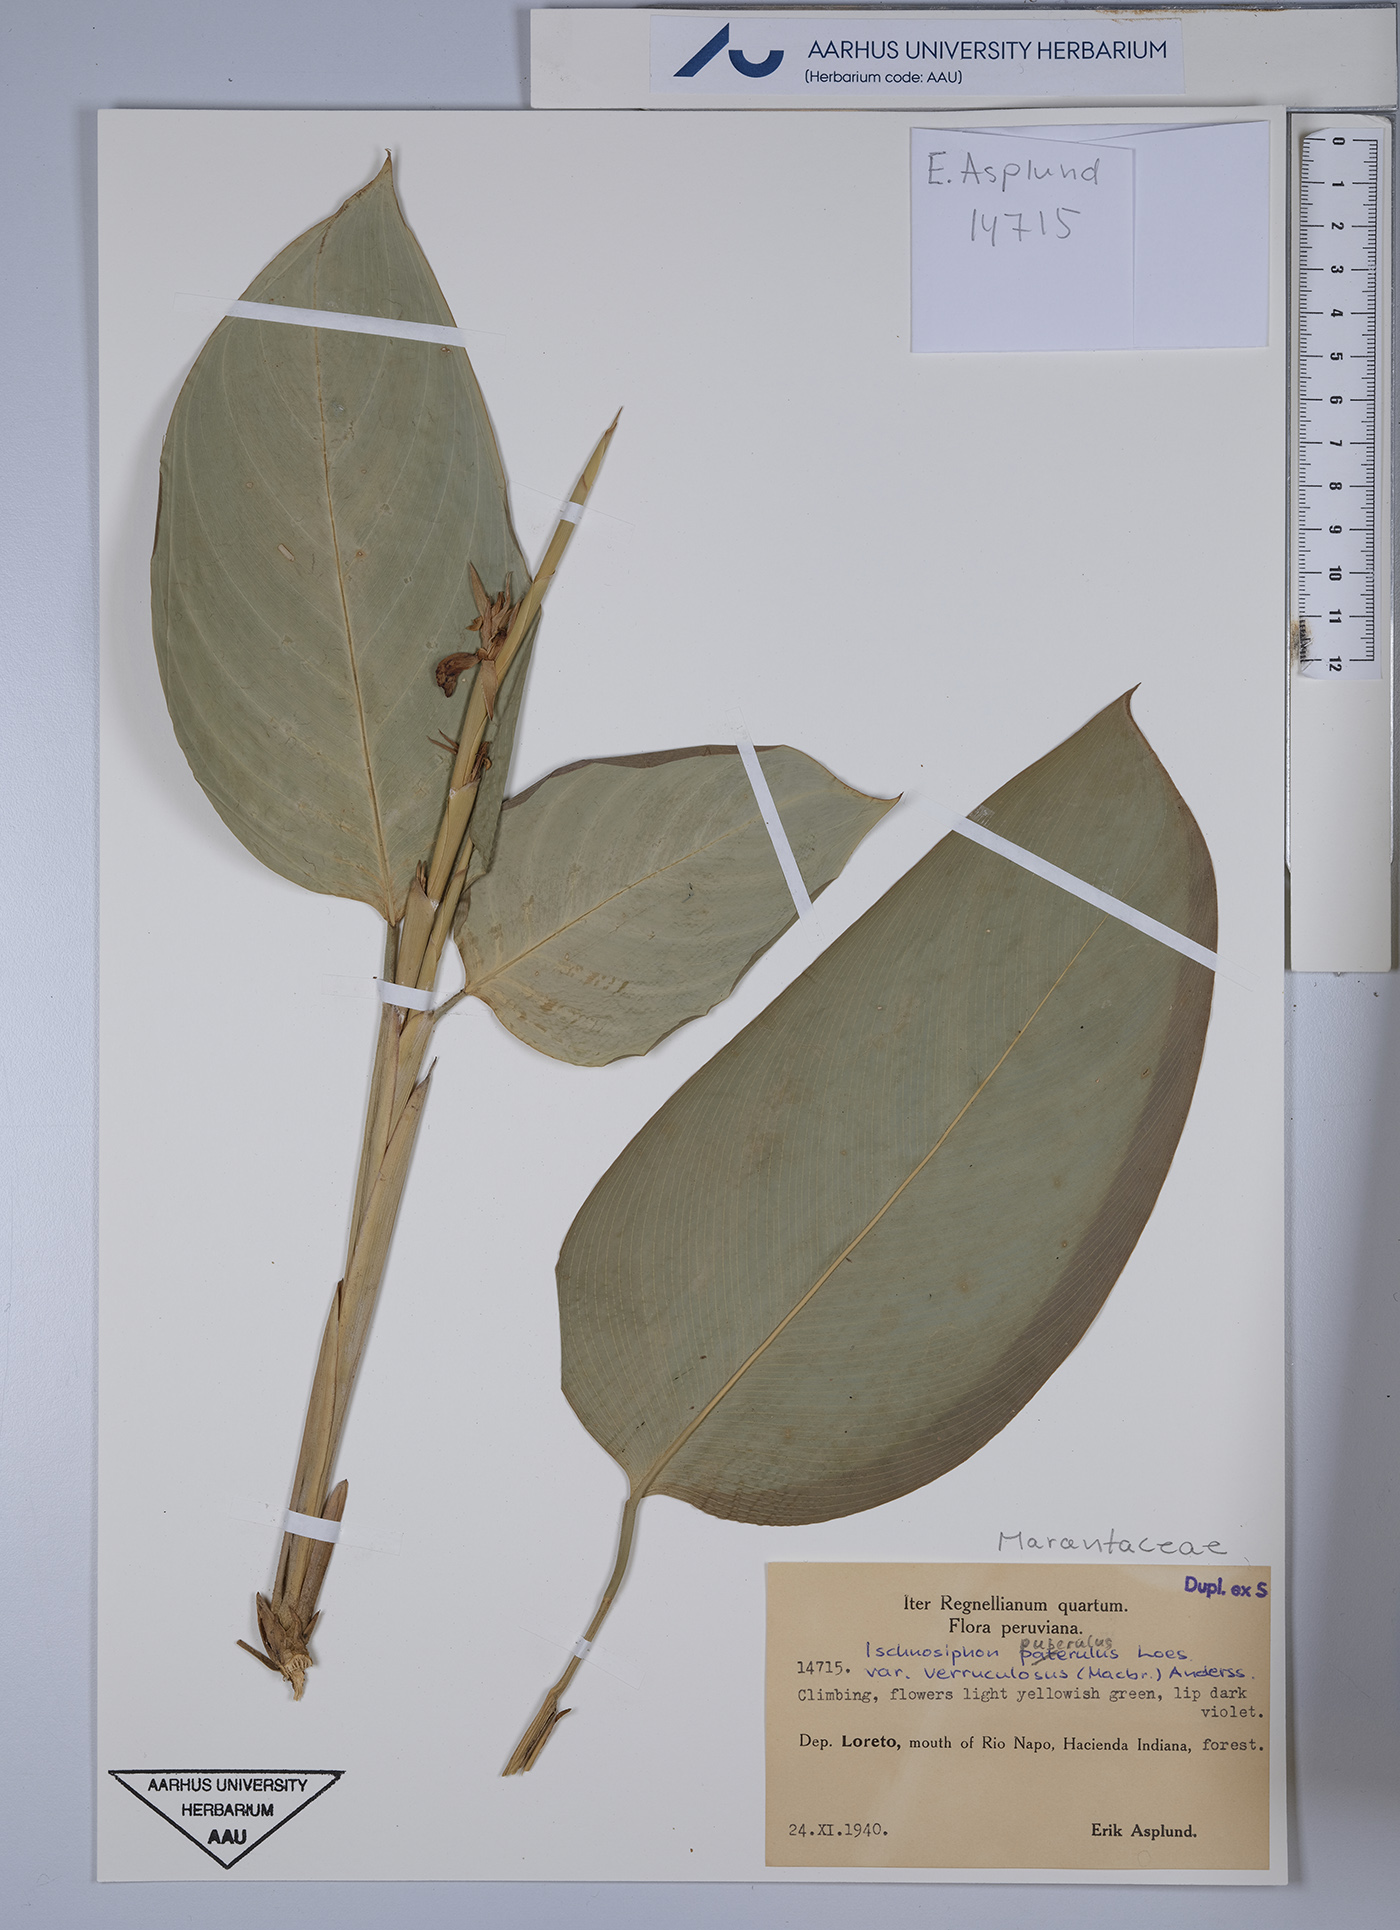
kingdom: Plantae
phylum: Tracheophyta
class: Liliopsida
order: Zingiberales
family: Marantaceae
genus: Ischnosiphon
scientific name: Ischnosiphon puberulus
